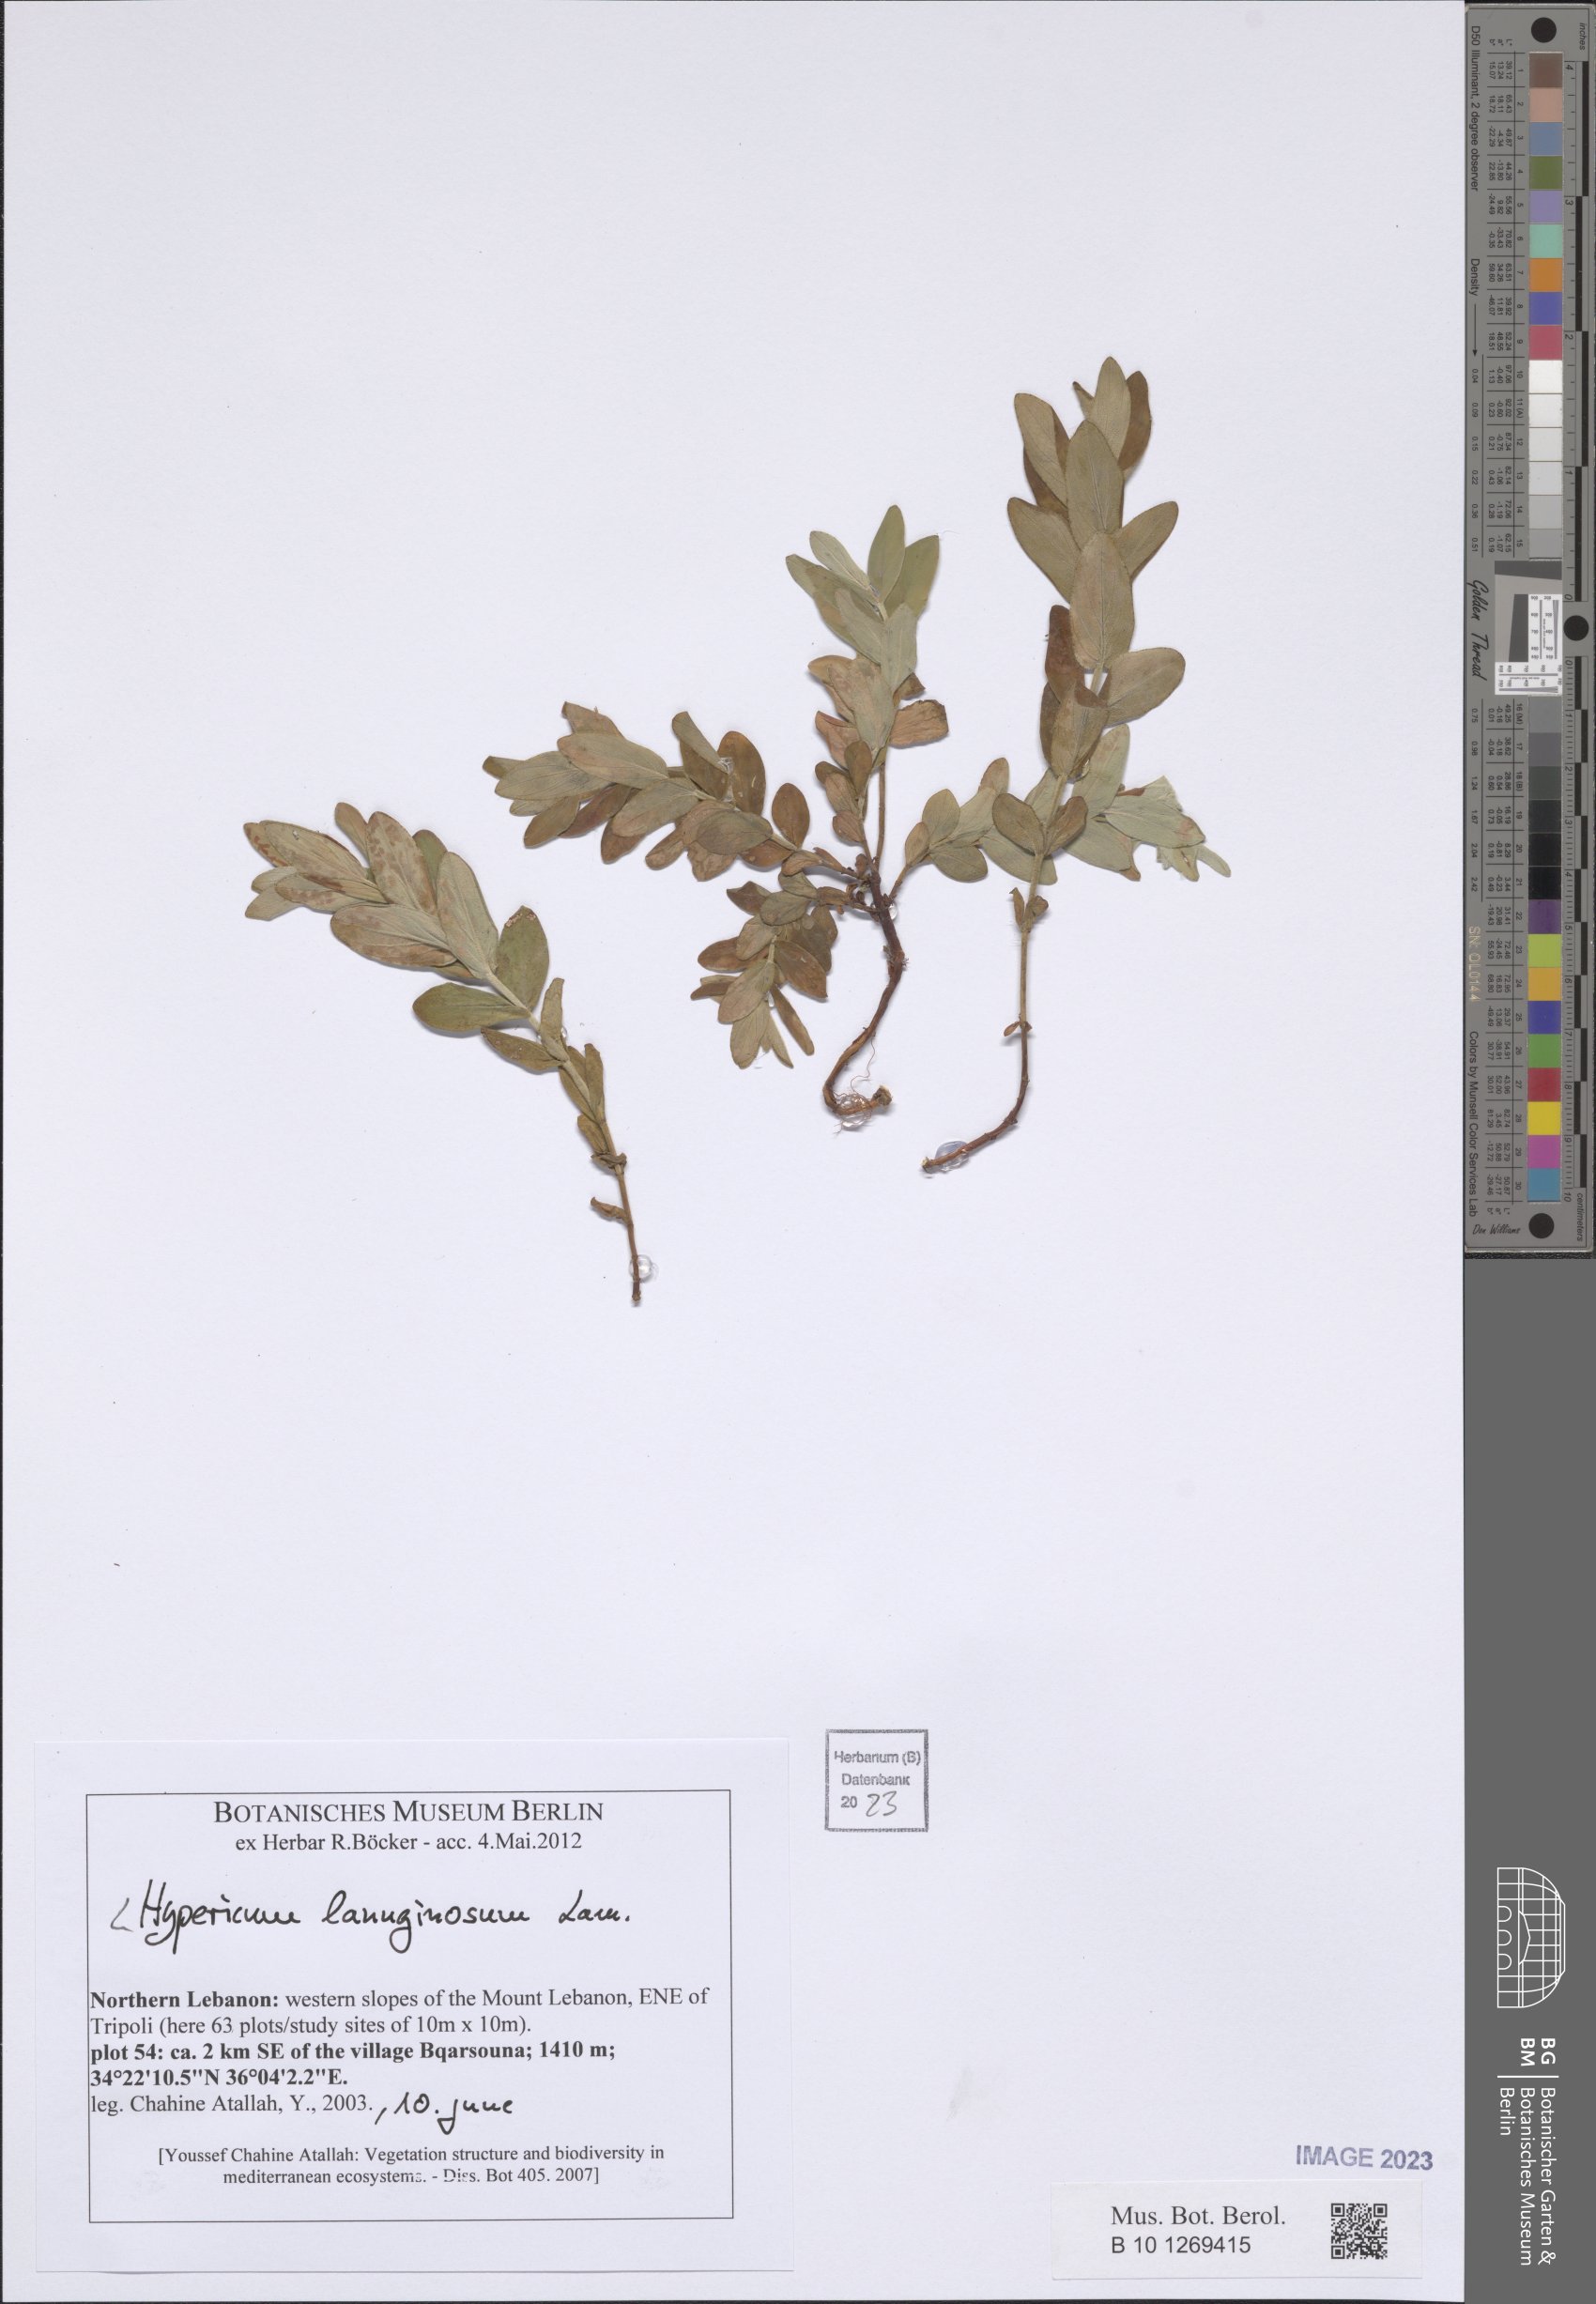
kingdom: Plantae
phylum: Tracheophyta
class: Magnoliopsida
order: Malpighiales
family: Hypericaceae
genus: Hypericum
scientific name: Hypericum lanuginosum
